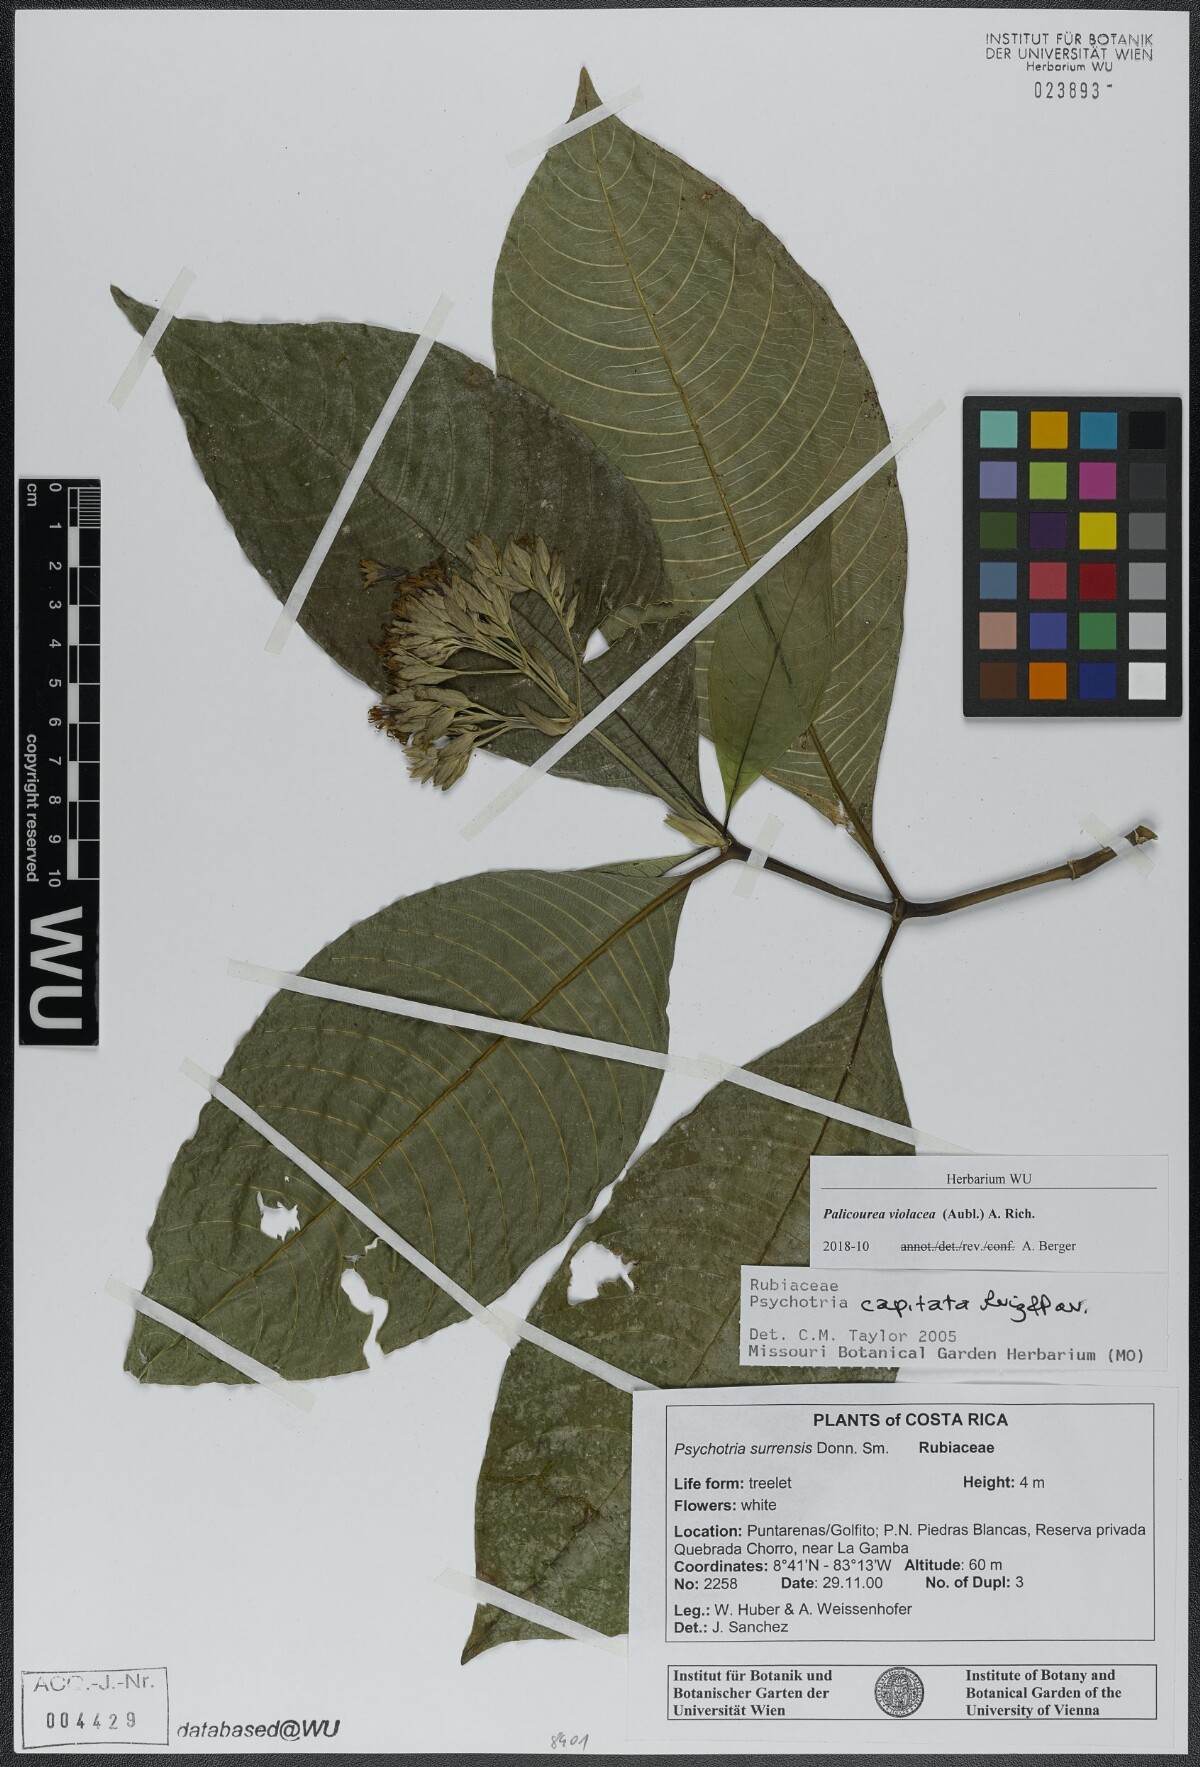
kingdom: Plantae
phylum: Tracheophyta
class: Magnoliopsida
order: Gentianales
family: Rubiaceae
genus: Palicourea
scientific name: Palicourea violacea
